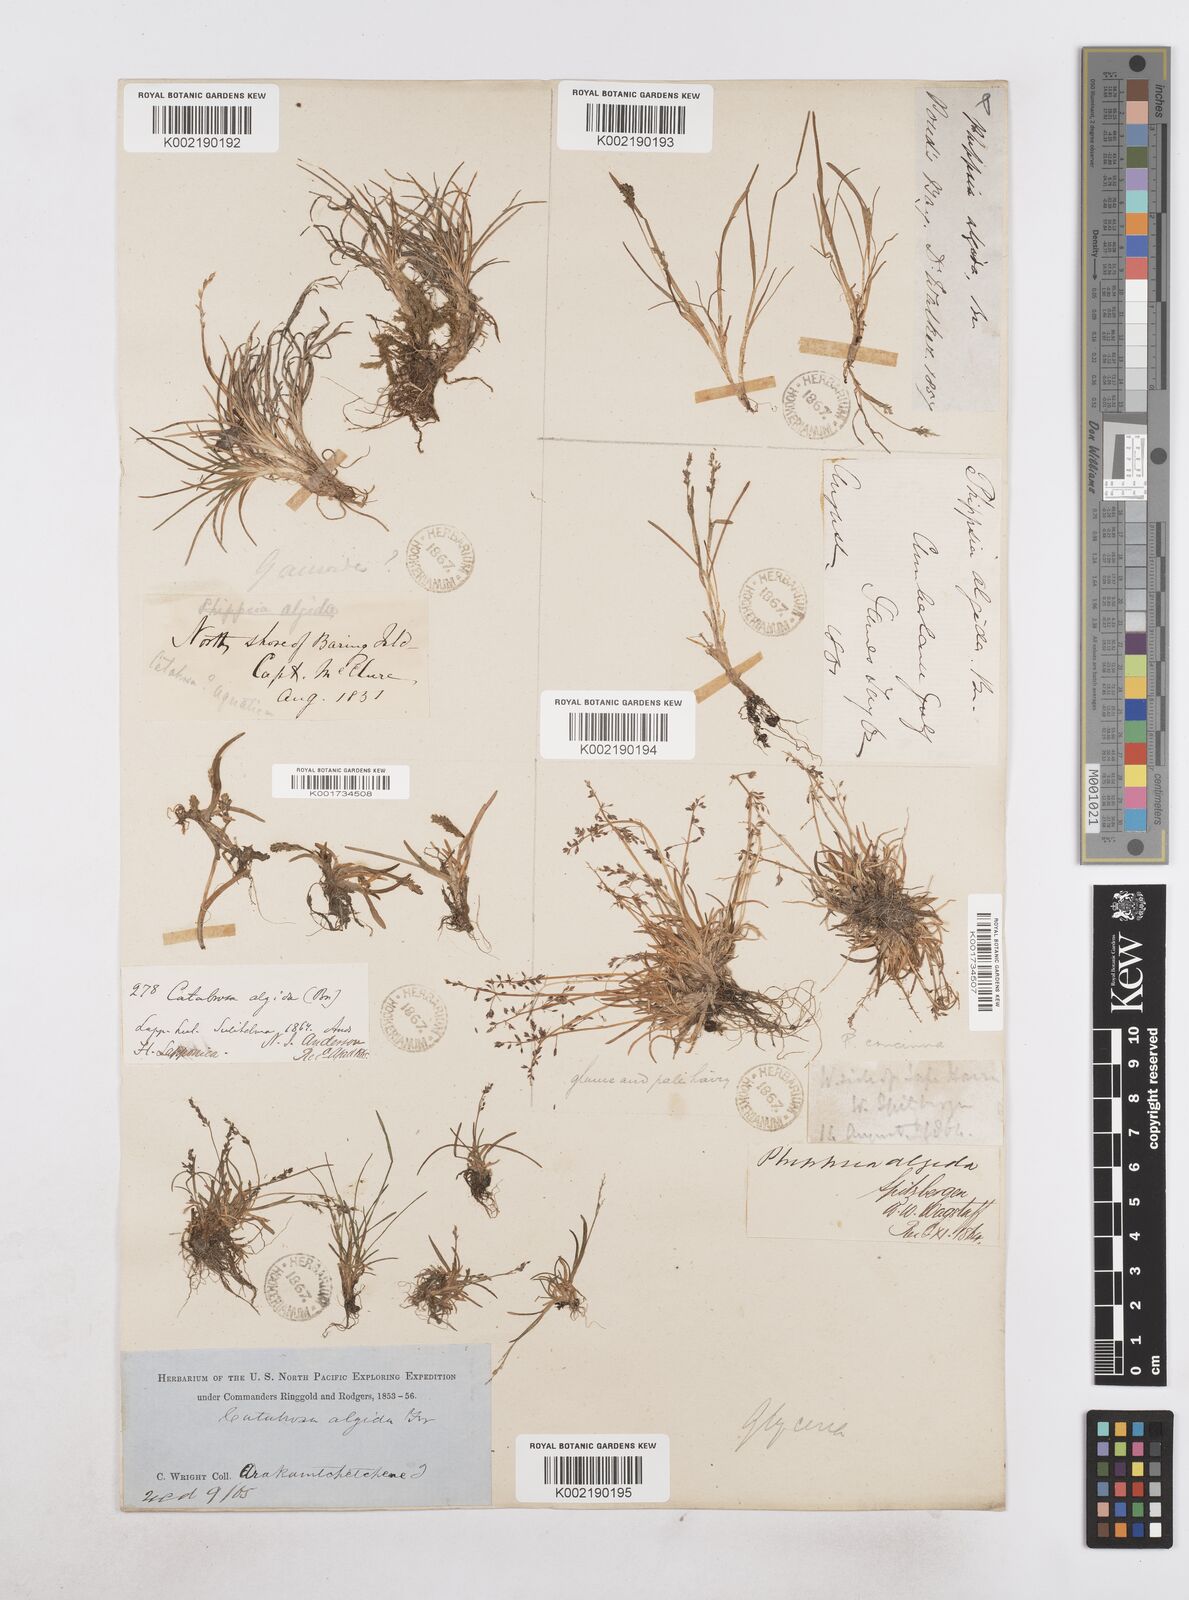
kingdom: Plantae
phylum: Tracheophyta
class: Liliopsida
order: Poales
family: Poaceae
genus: Phippsia
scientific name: Phippsia algida
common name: Ice grass
